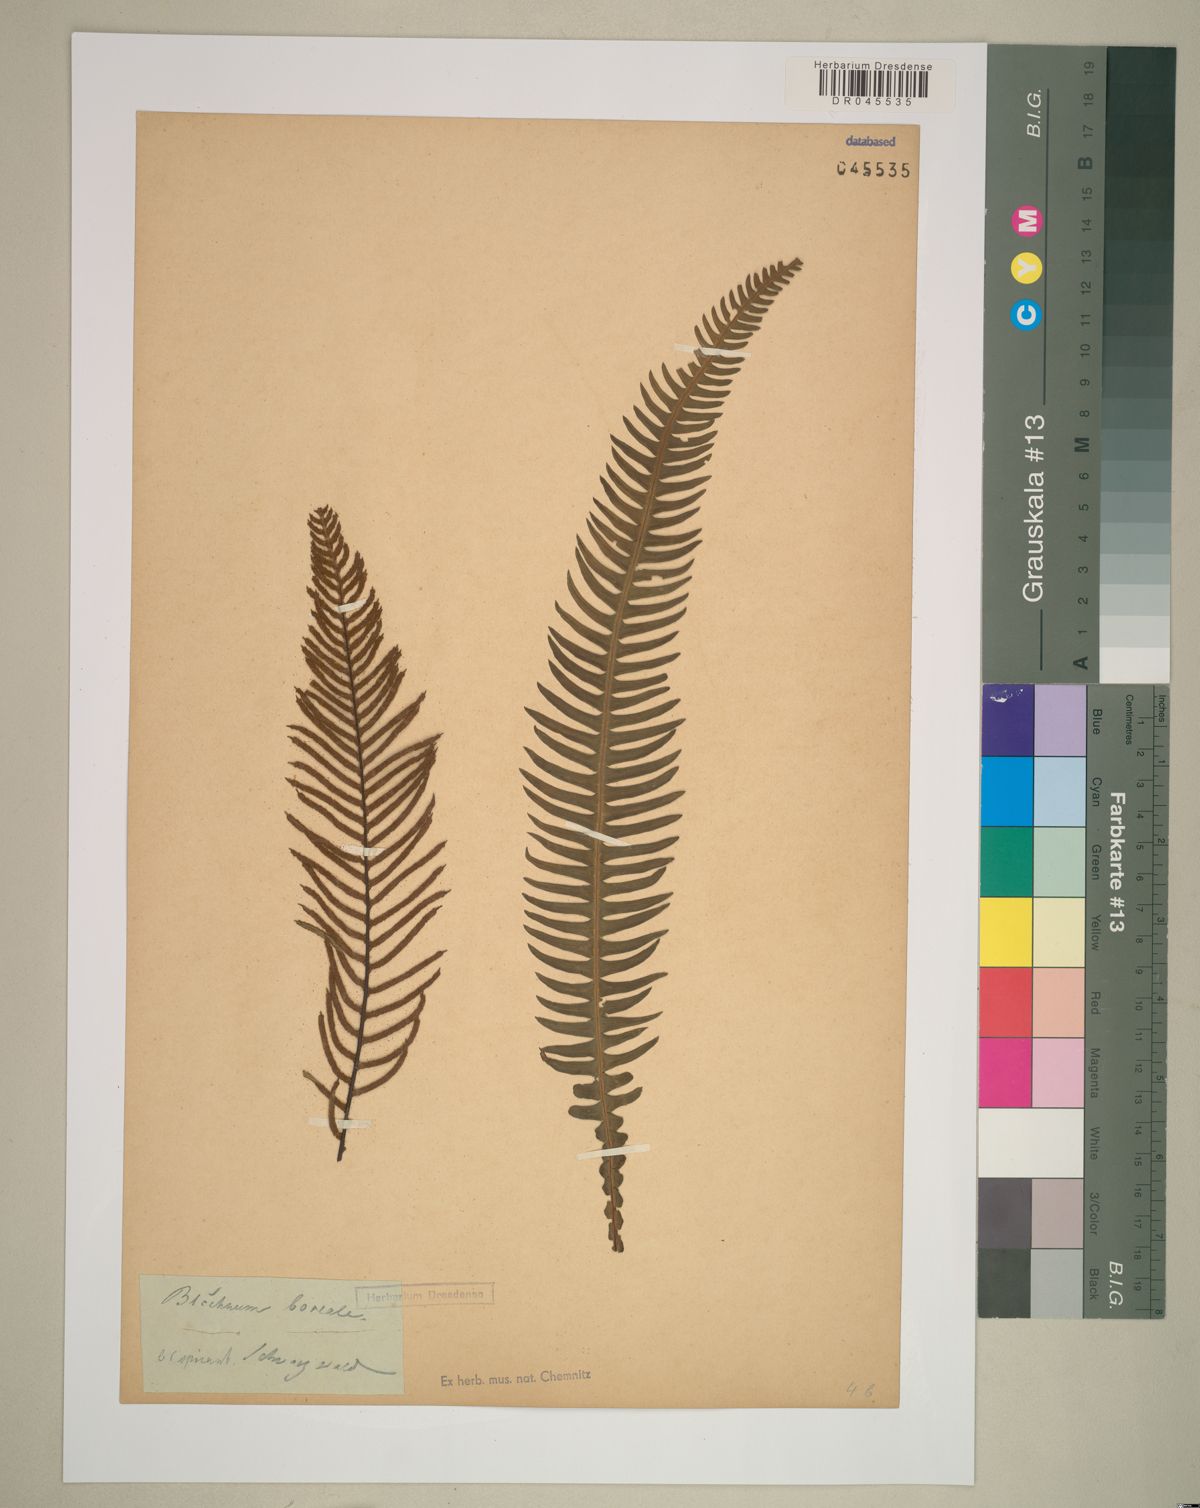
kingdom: Plantae
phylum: Tracheophyta
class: Polypodiopsida
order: Polypodiales
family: Blechnaceae
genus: Struthiopteris
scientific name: Struthiopteris spicant
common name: Deer fern
